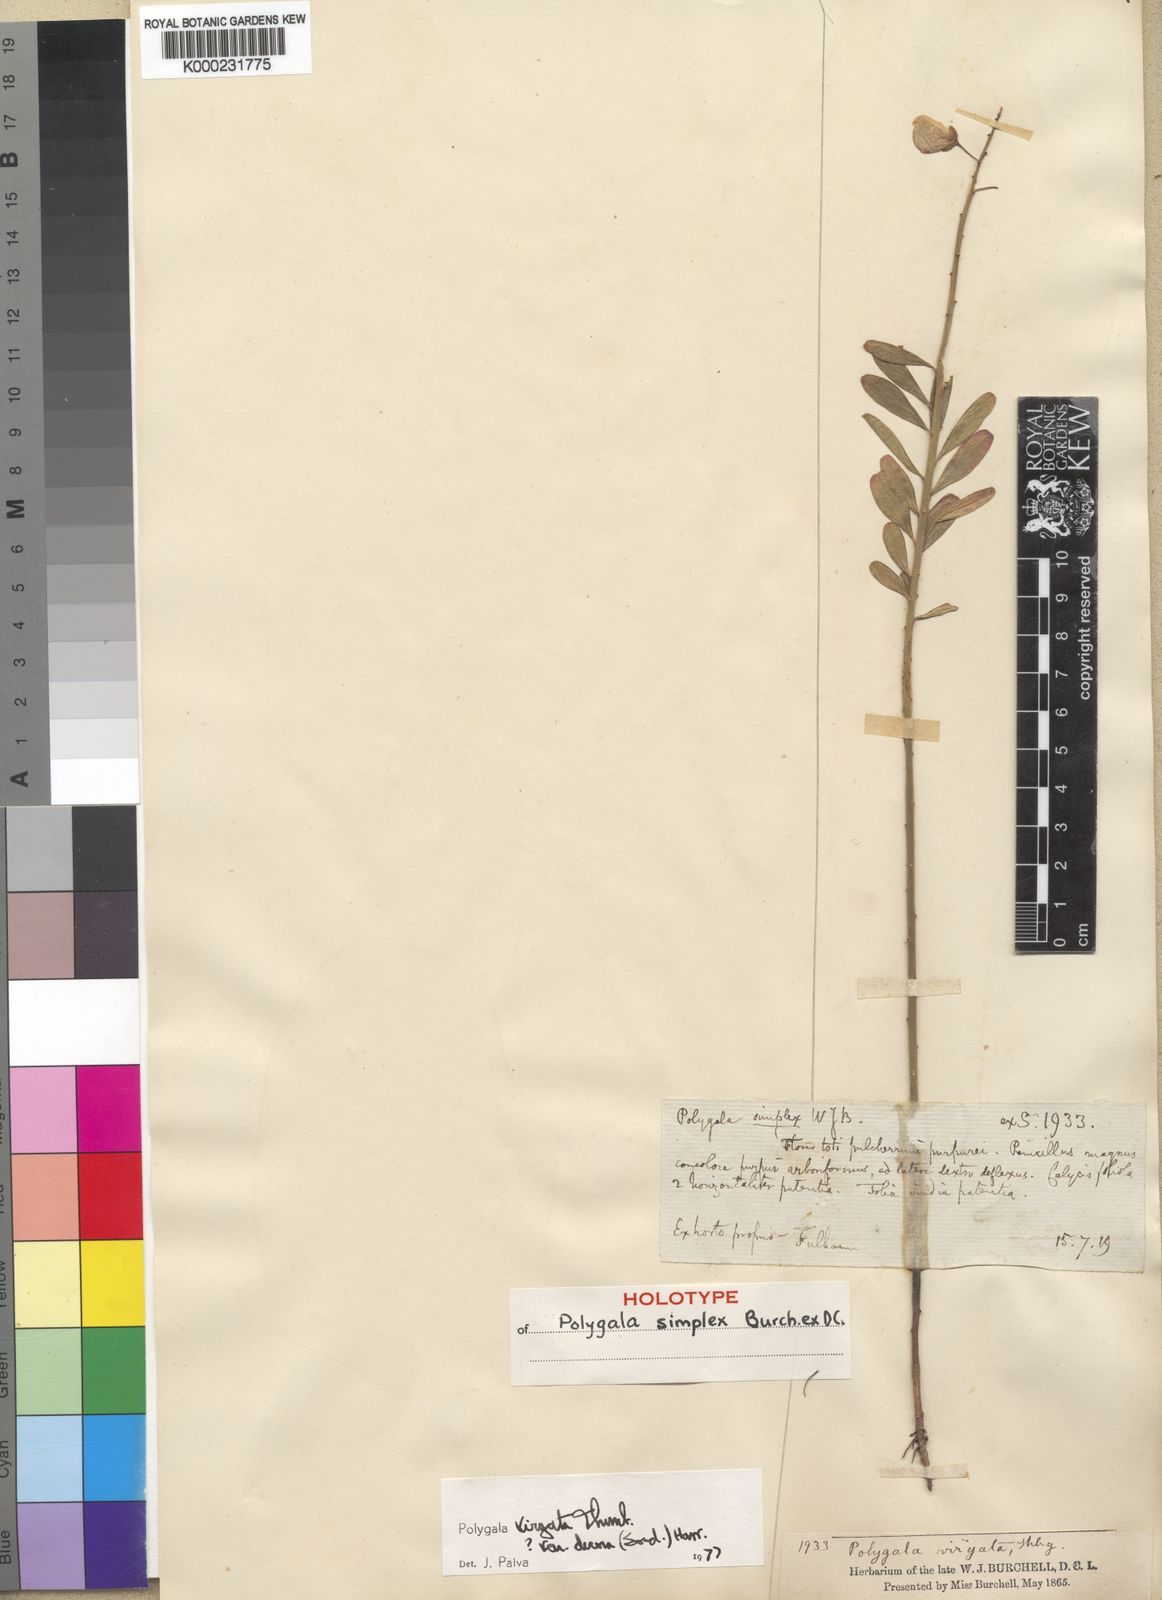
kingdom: Plantae
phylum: Tracheophyta
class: Magnoliopsida
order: Fabales
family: Polygalaceae
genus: Polygala
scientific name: Polygala virgata
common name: Milkwort
